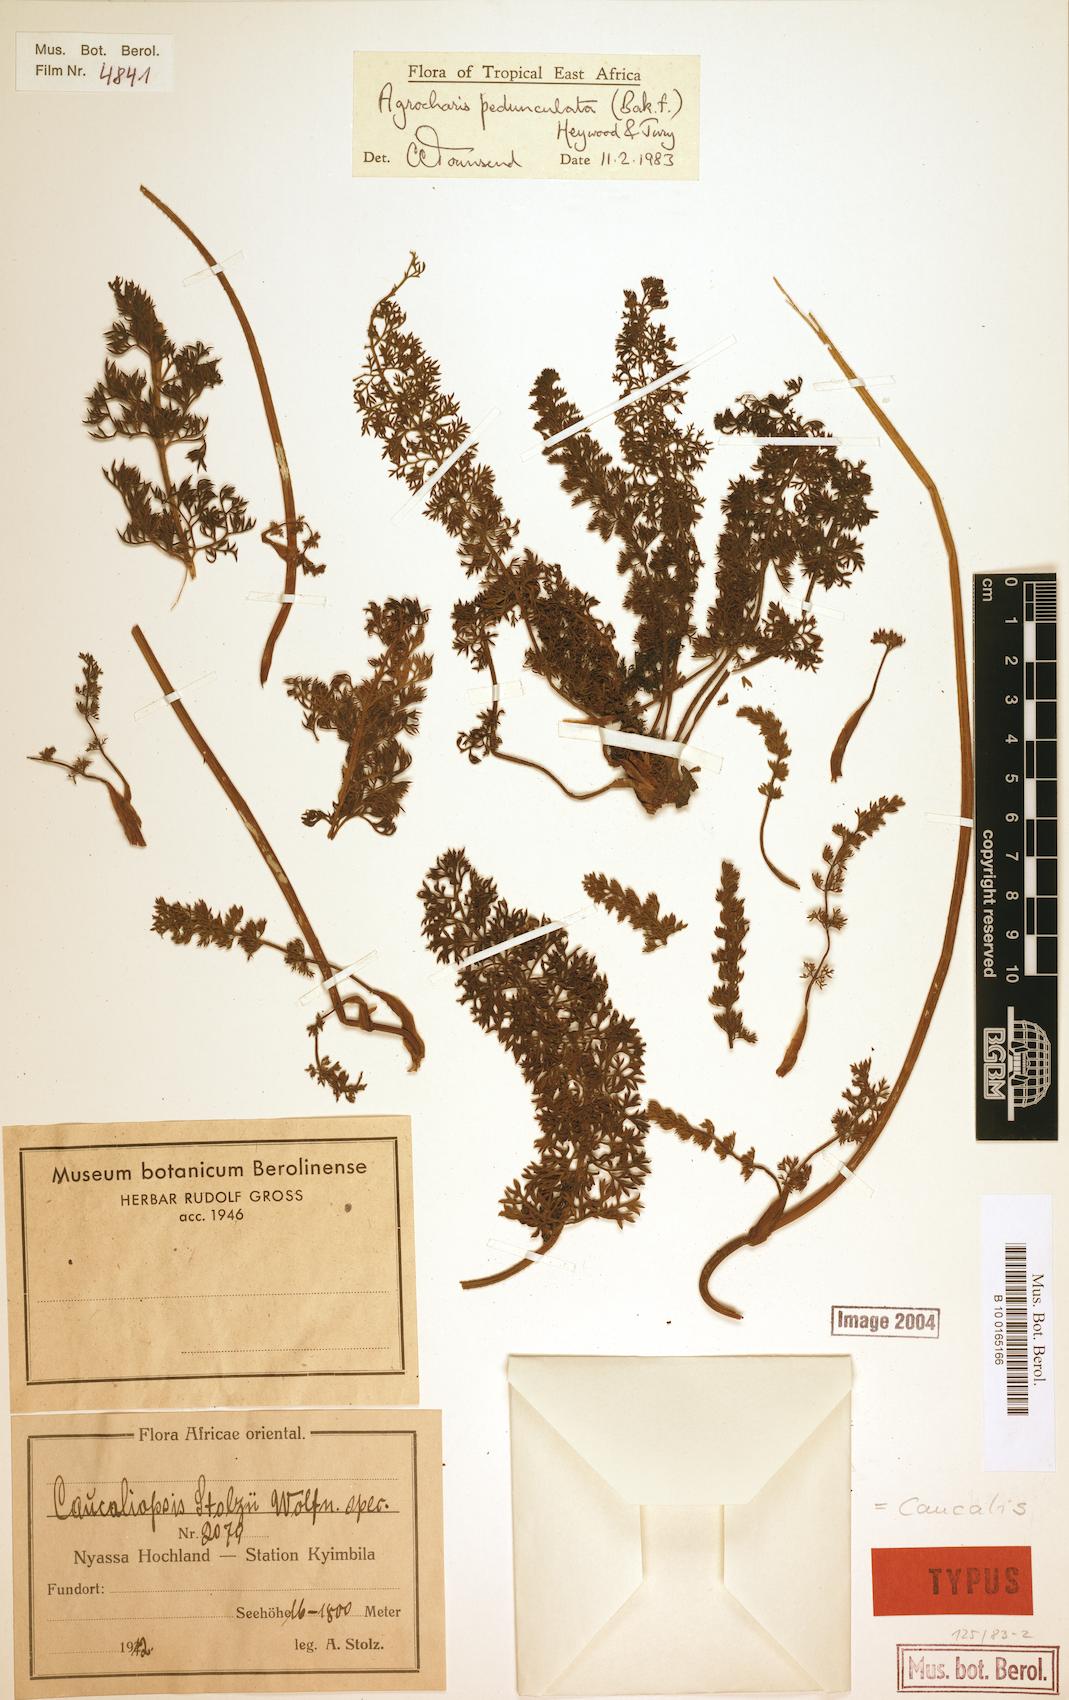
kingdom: Plantae
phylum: Tracheophyta
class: Magnoliopsida
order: Apiales
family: Apiaceae
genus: Daucus
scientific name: Daucus pedunculatus
